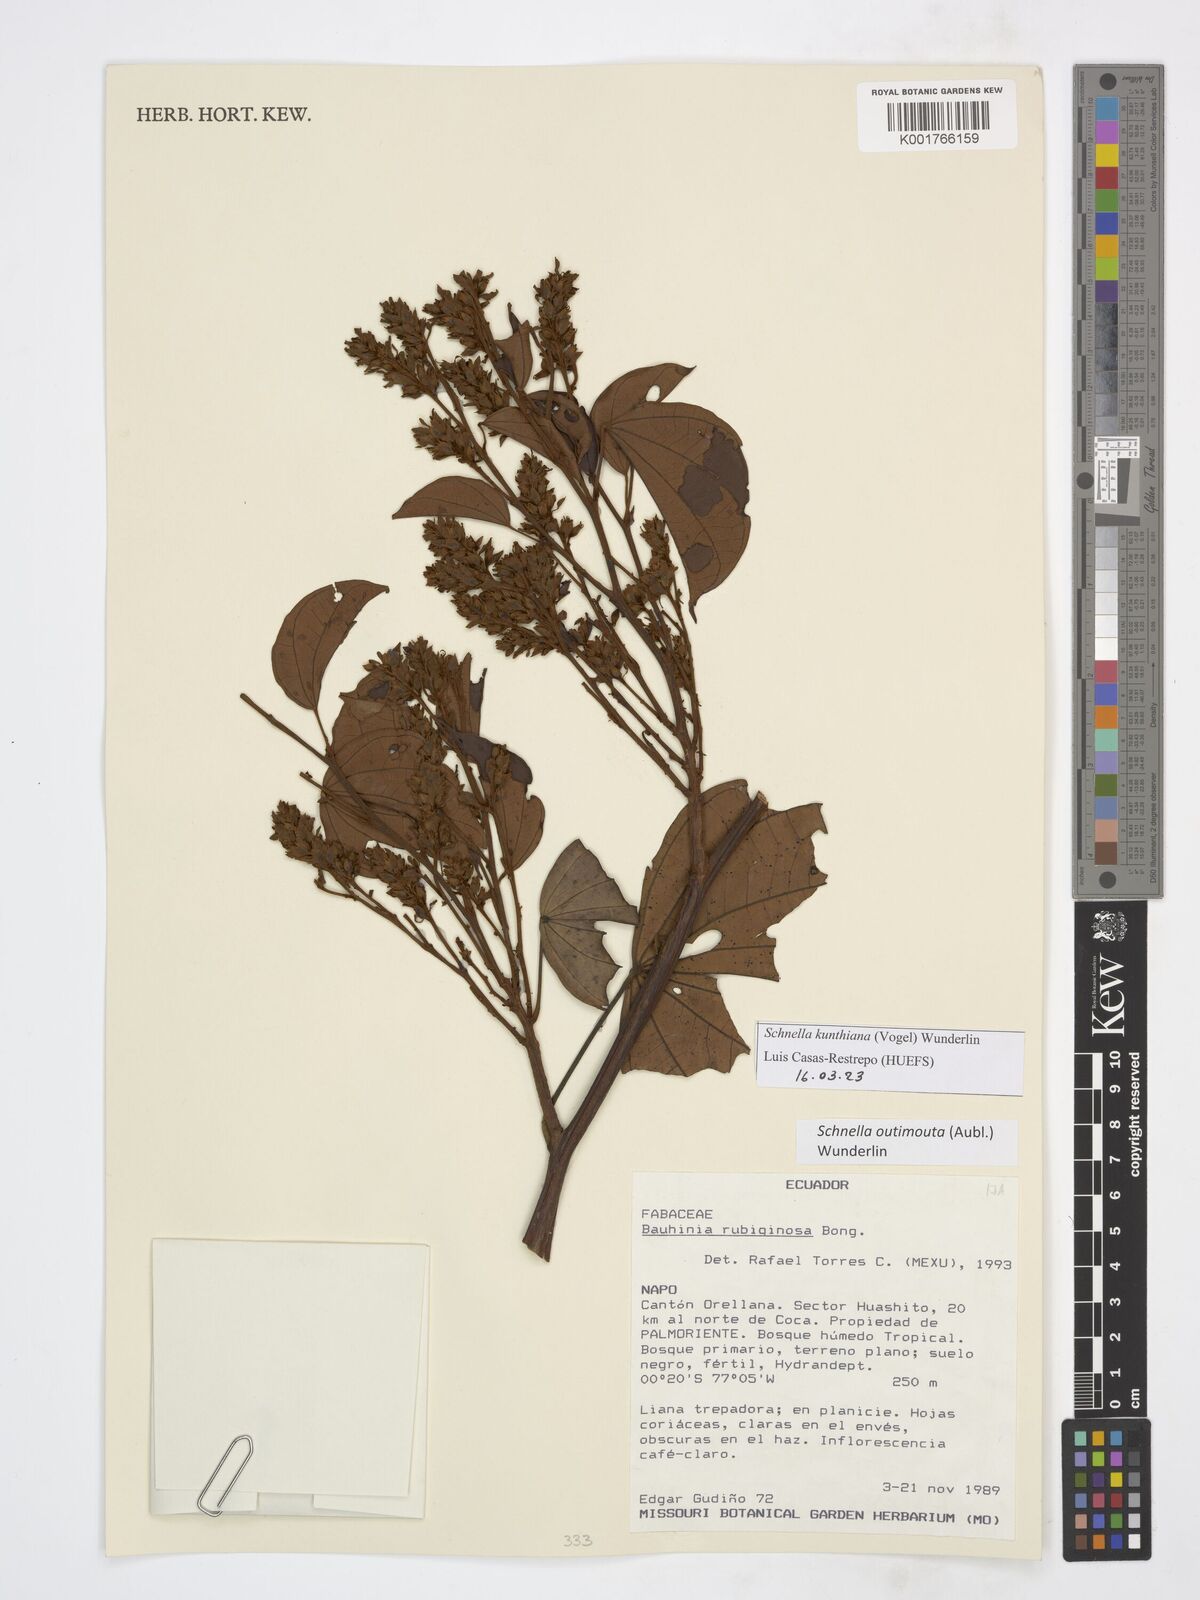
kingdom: Plantae
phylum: Tracheophyta
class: Magnoliopsida
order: Fabales
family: Fabaceae
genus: Schnella
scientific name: Schnella kunthiana
